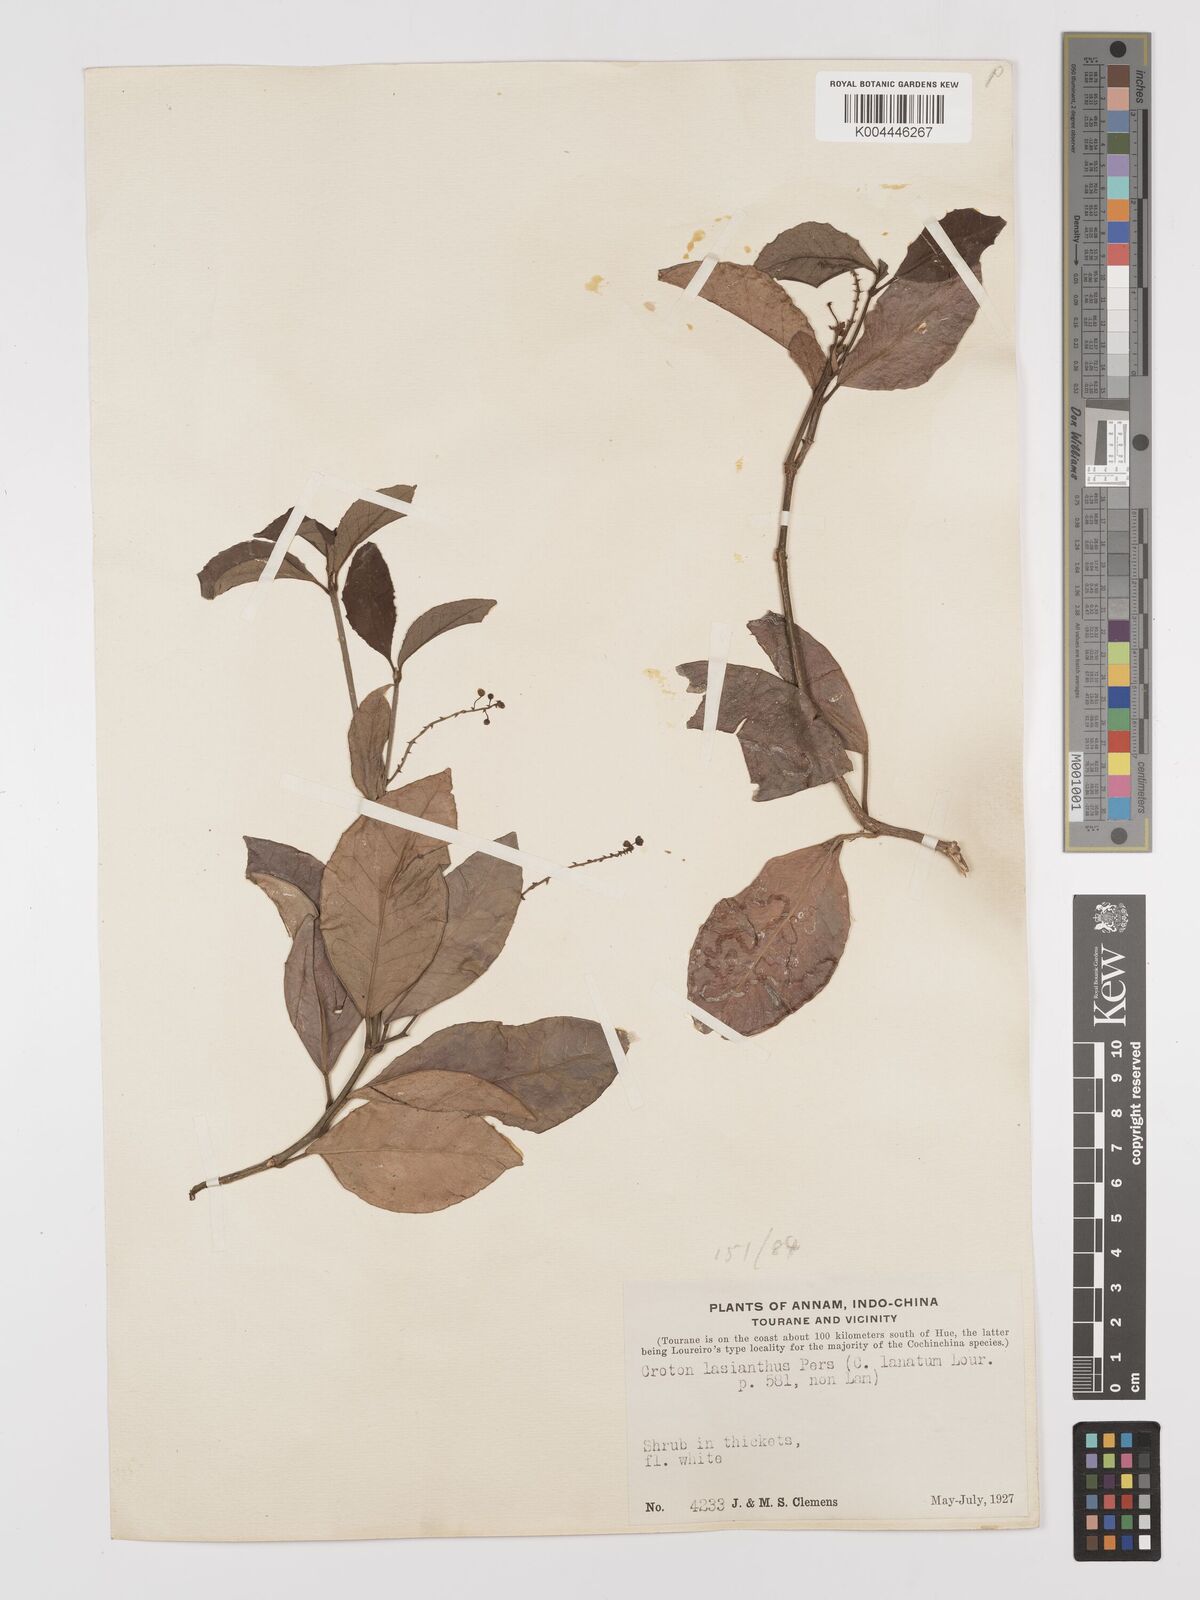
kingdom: Plantae
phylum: Tracheophyta
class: Magnoliopsida
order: Malpighiales
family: Euphorbiaceae
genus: Croton
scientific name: Croton laniflorus
